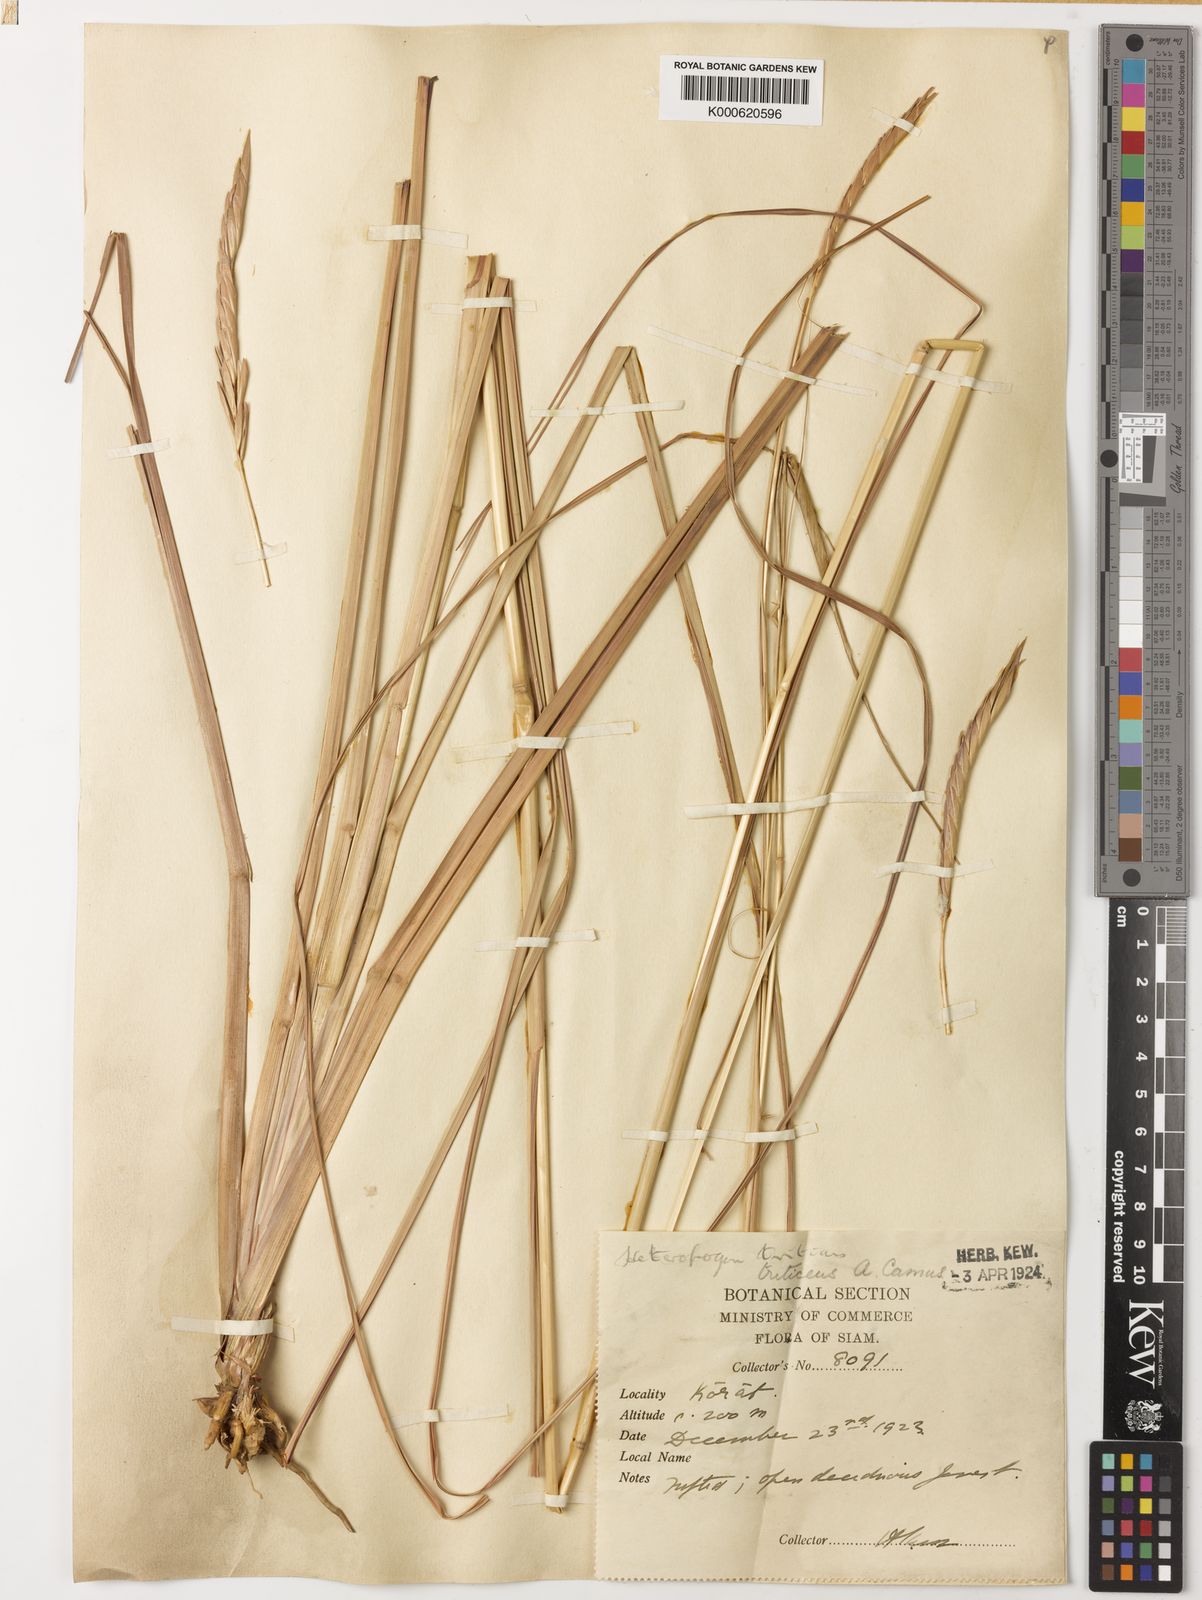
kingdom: Plantae
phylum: Tracheophyta
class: Liliopsida
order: Poales
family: Poaceae
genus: Heteropogon
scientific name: Heteropogon triticeus
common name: Sugar grass
